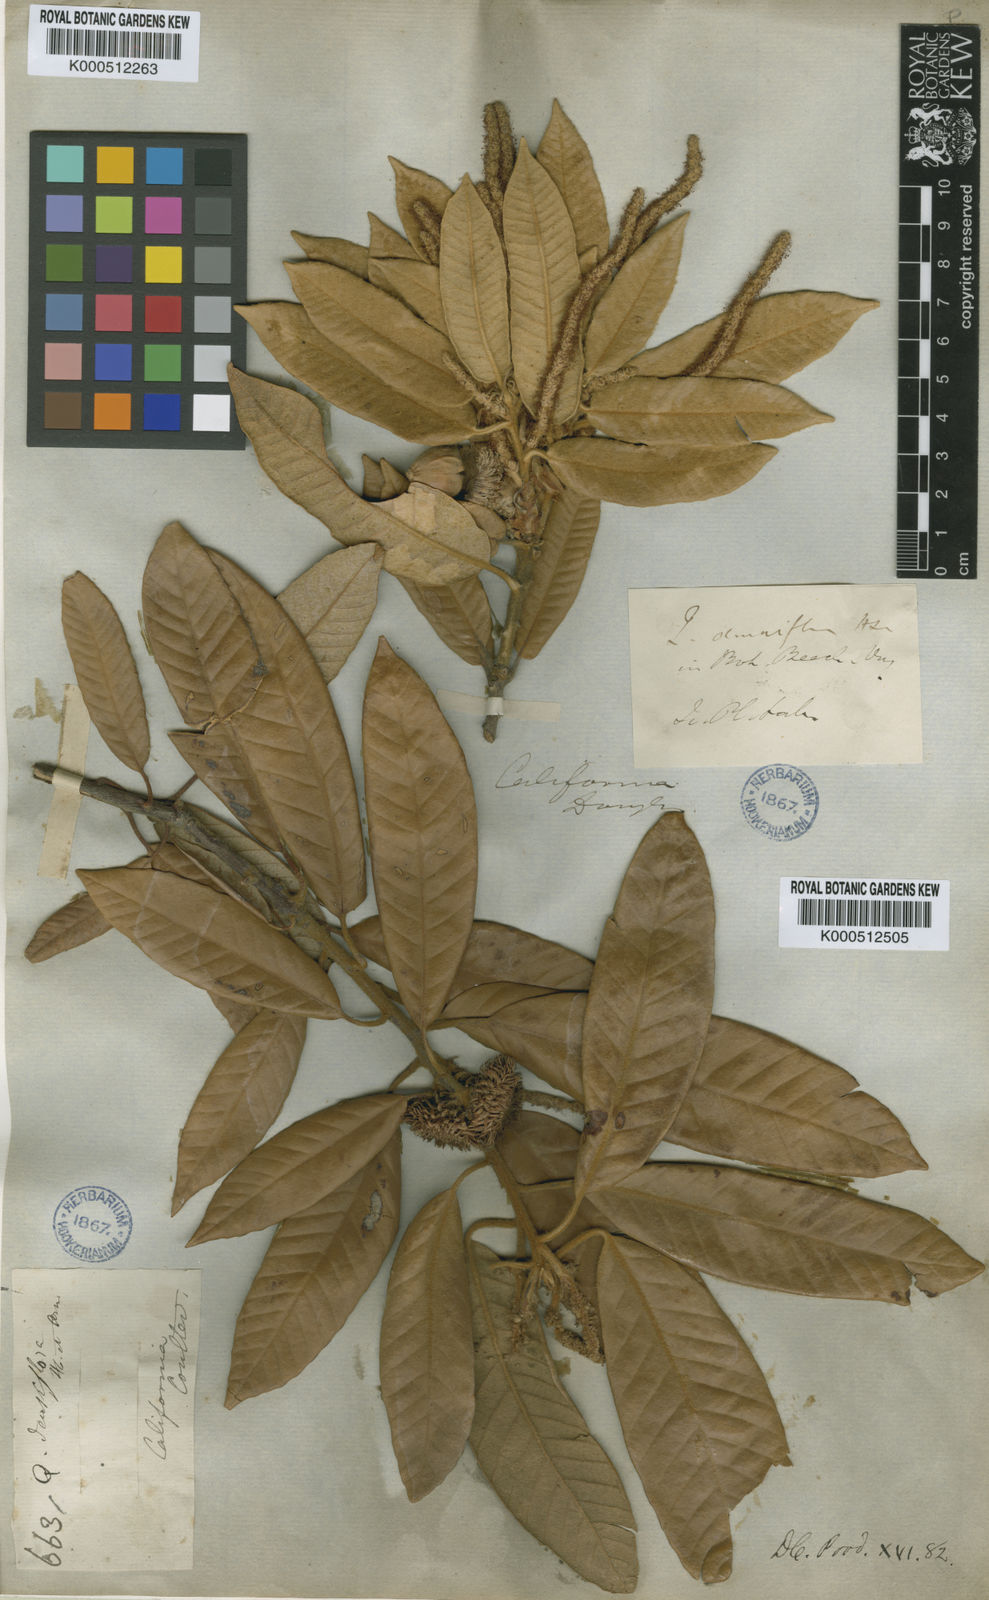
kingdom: Plantae
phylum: Tracheophyta
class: Magnoliopsida
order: Fagales
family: Fagaceae
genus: Notholithocarpus
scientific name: Notholithocarpus
